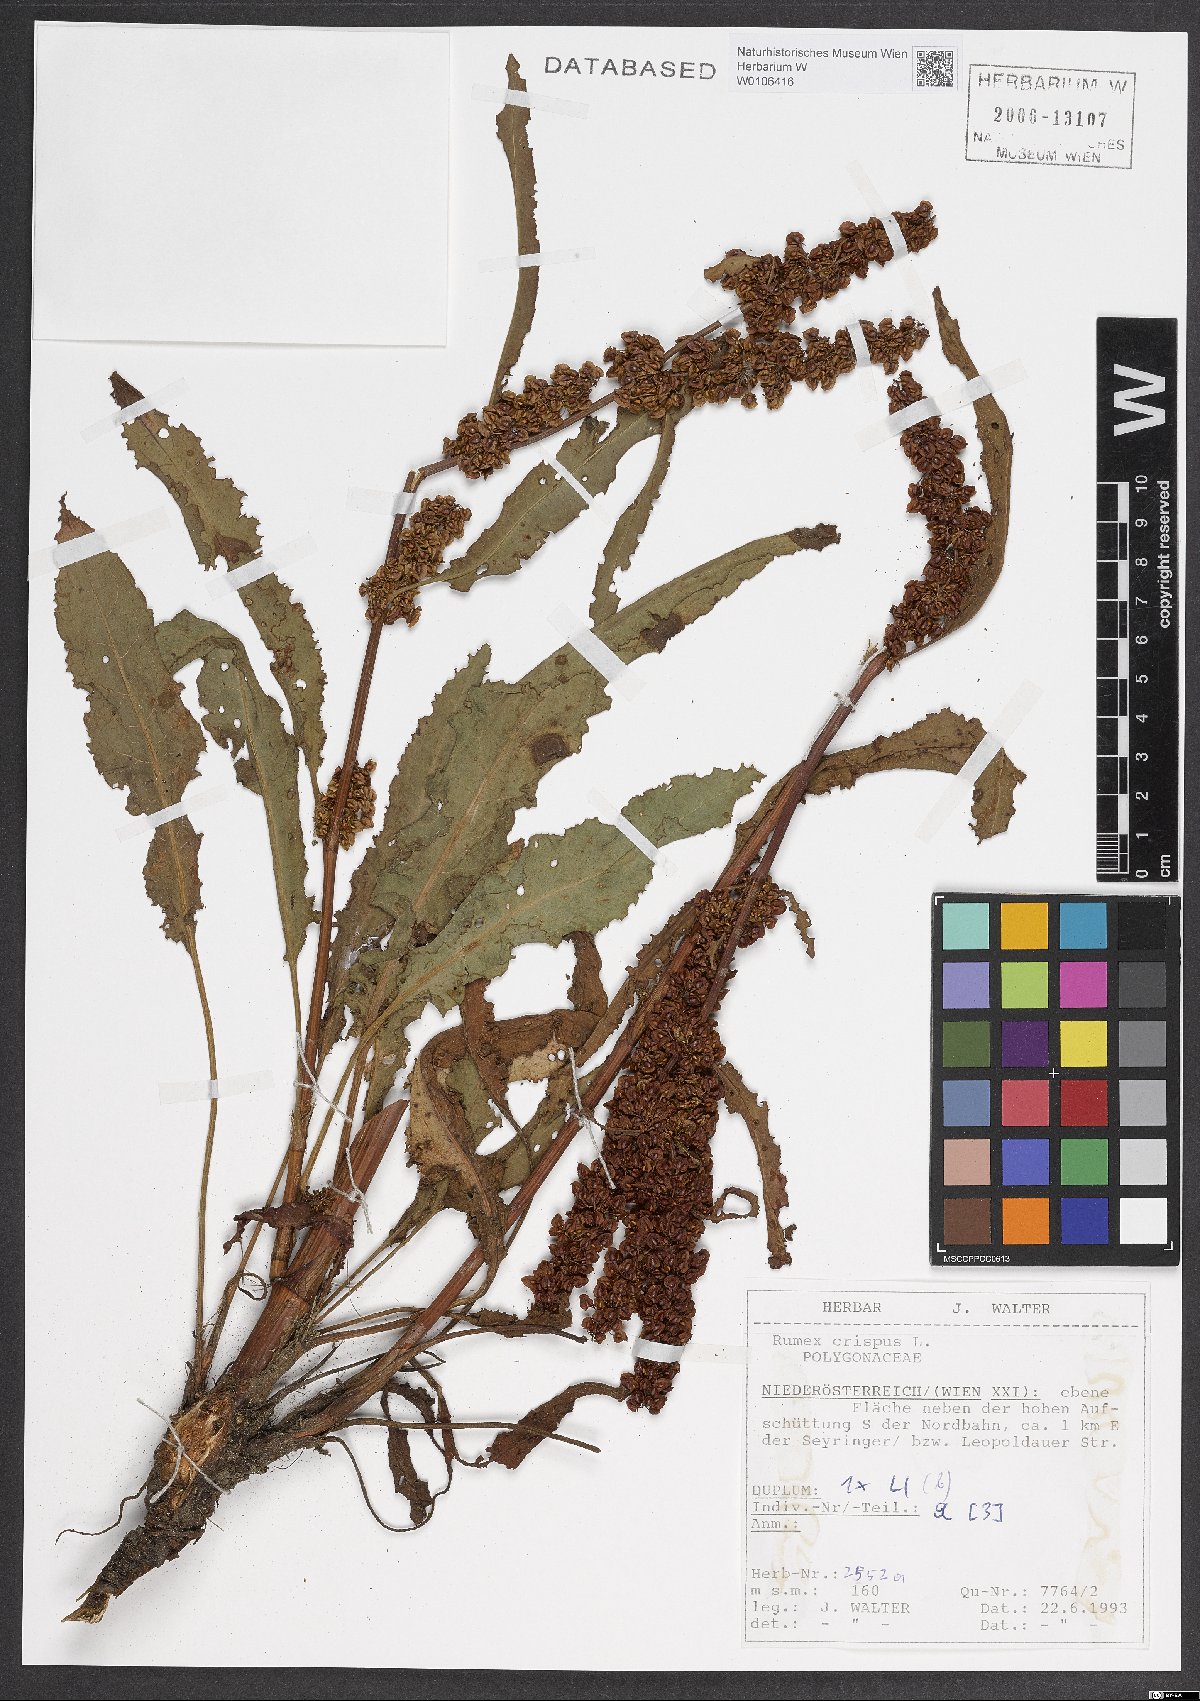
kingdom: Plantae
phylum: Tracheophyta
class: Magnoliopsida
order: Caryophyllales
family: Polygonaceae
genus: Rumex
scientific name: Rumex crispus
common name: Curled dock
